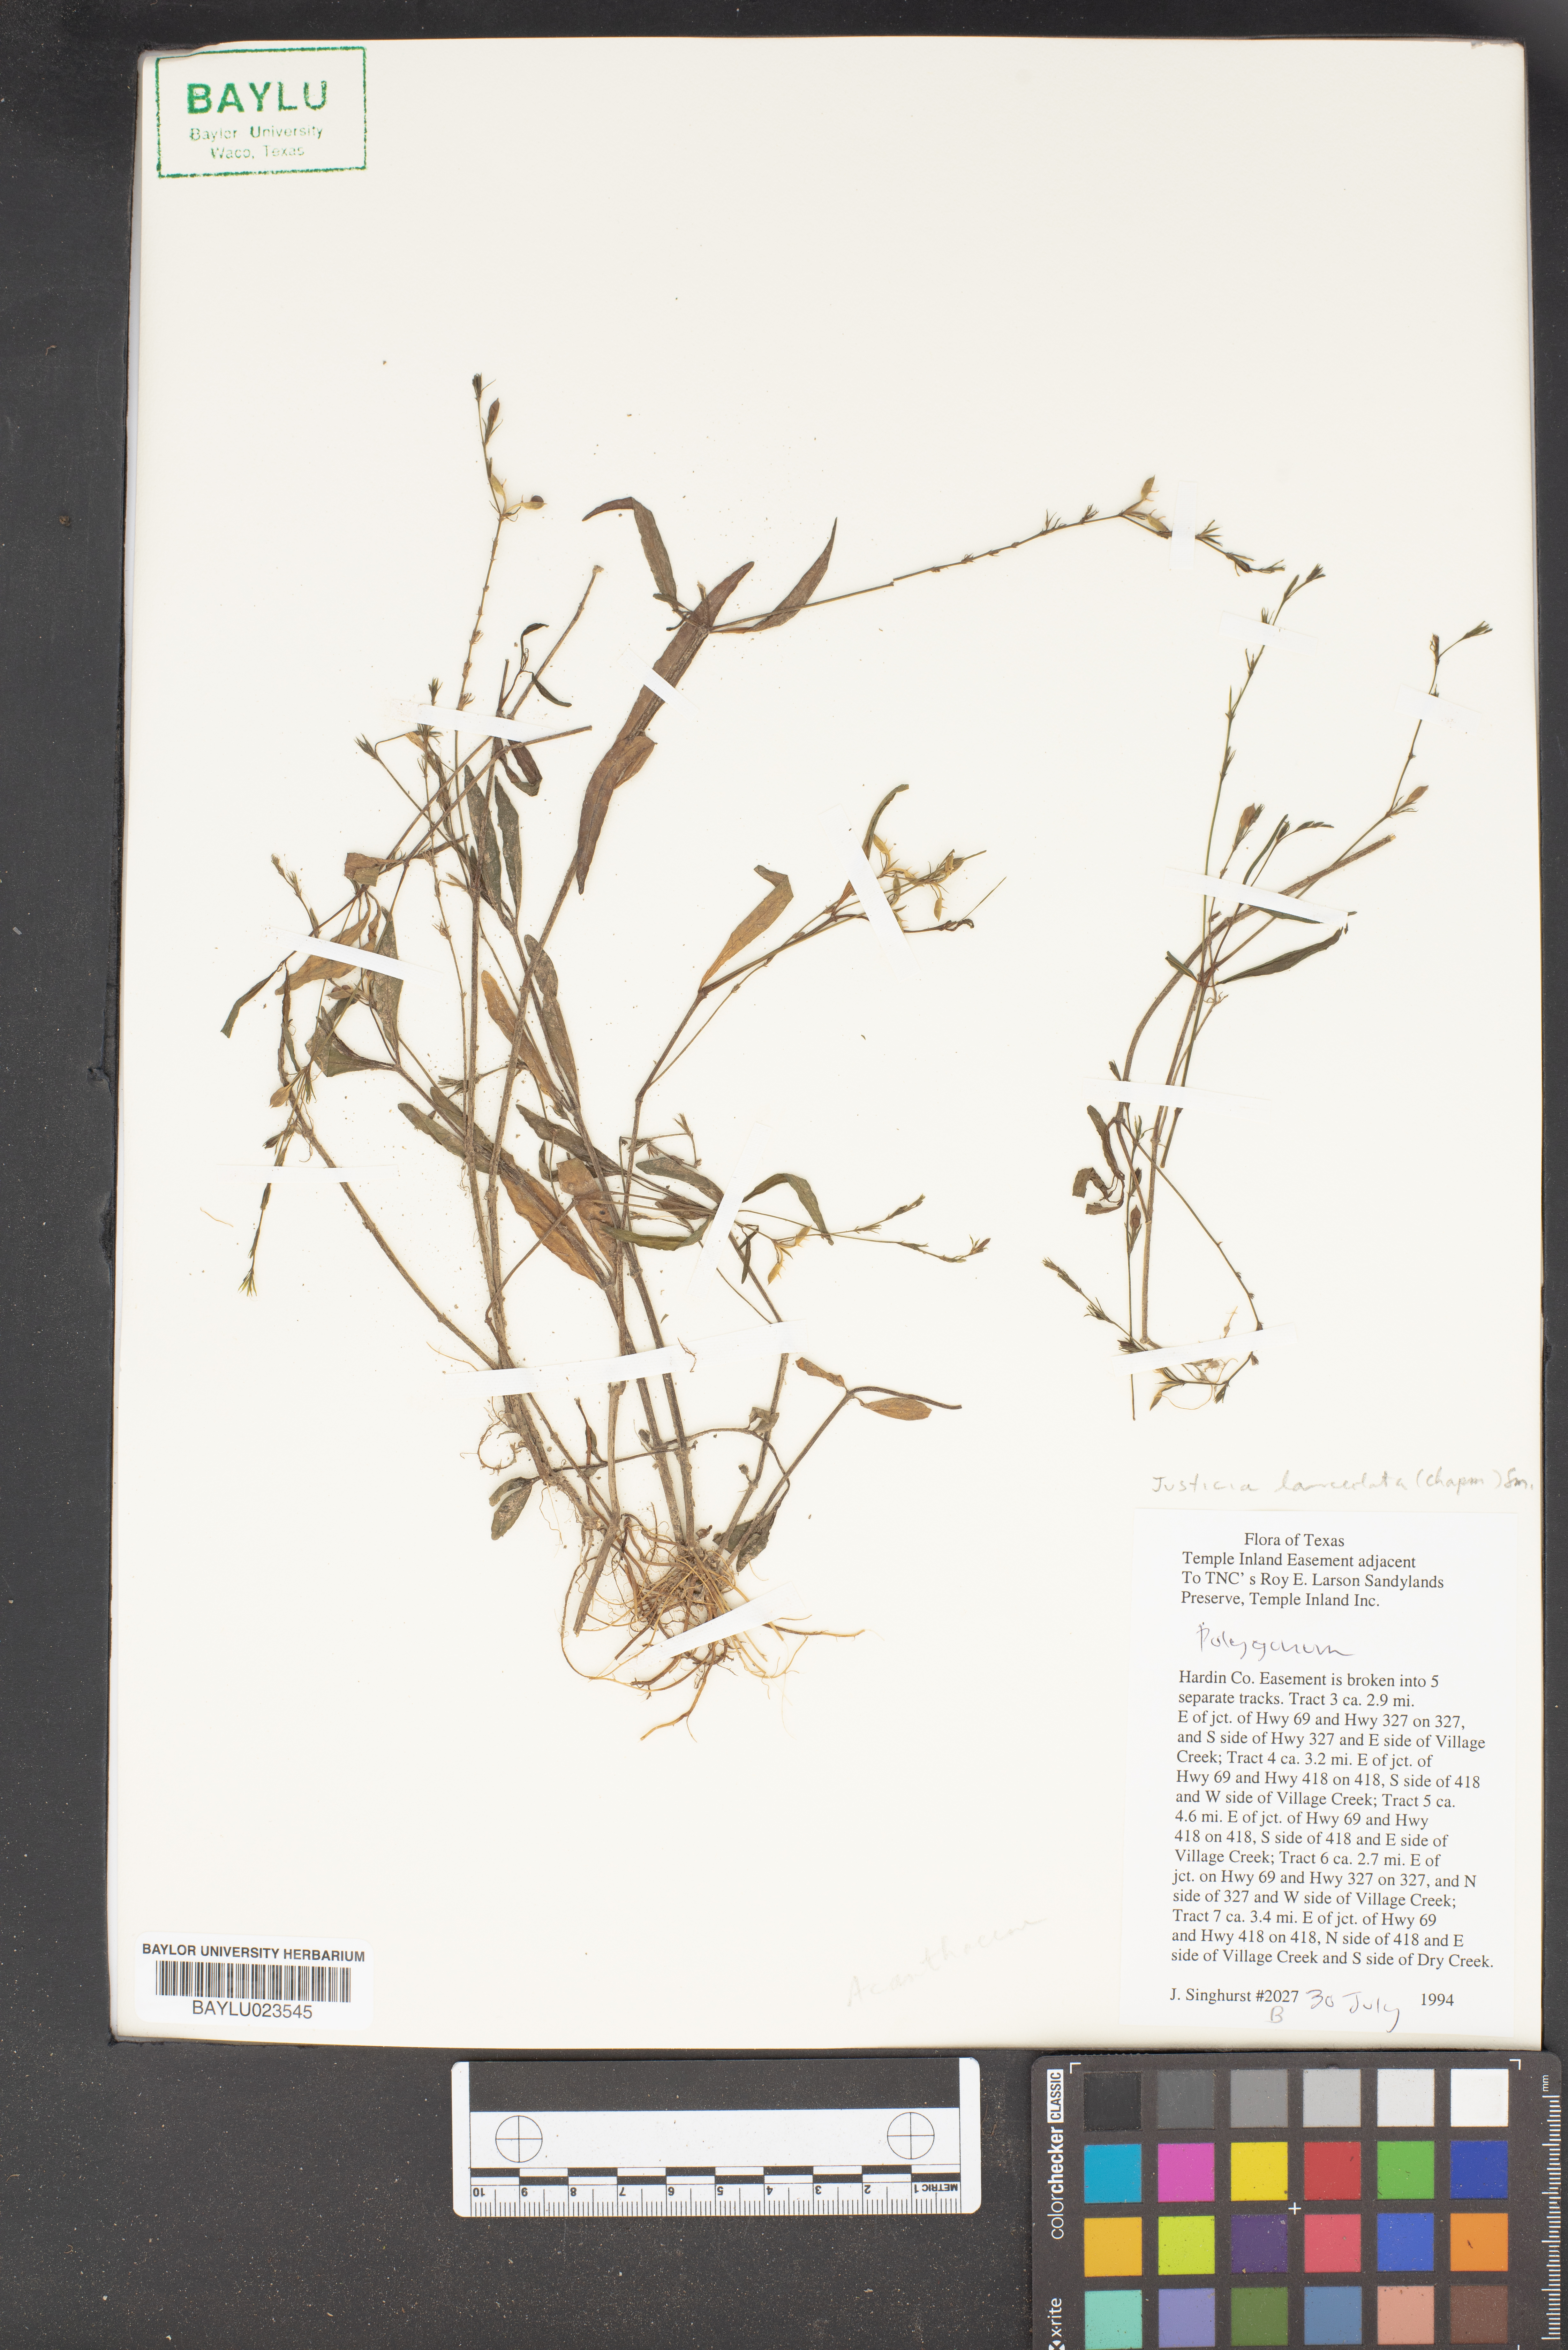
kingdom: Plantae
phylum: Tracheophyta
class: Magnoliopsida
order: Caryophyllales
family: Polygonaceae
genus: Polygonum
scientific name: Polygonum
